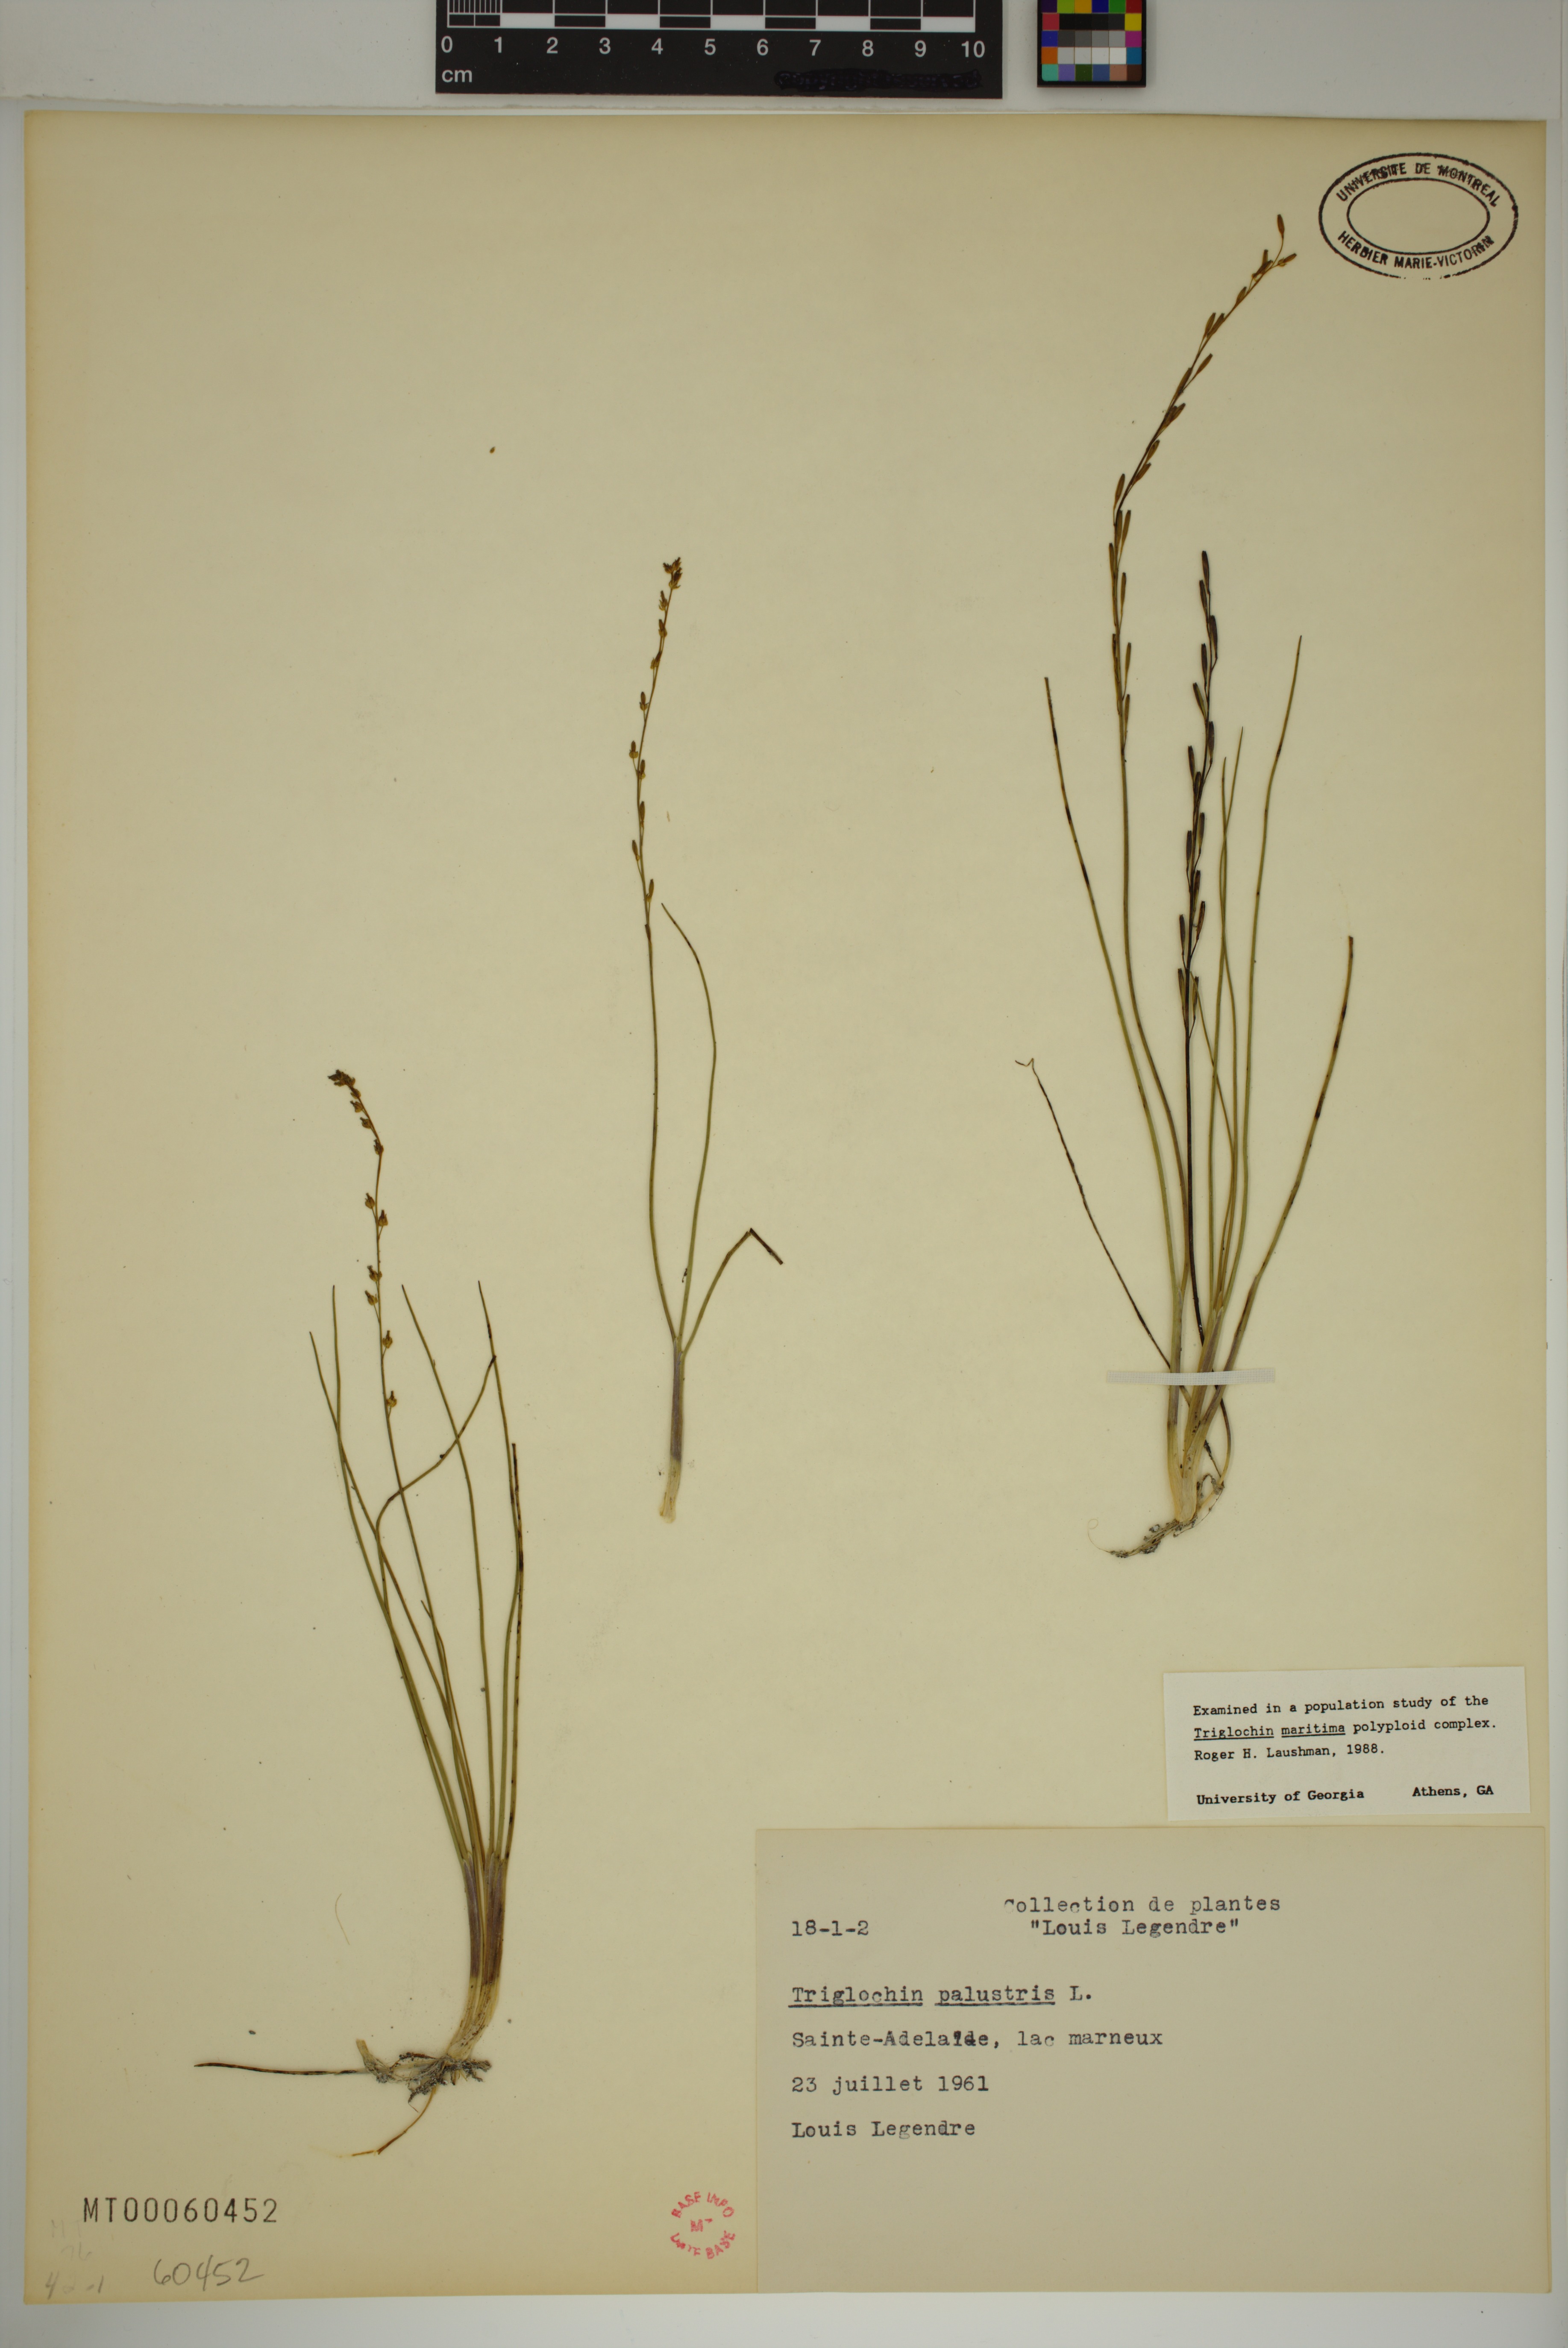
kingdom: Plantae
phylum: Tracheophyta
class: Liliopsida
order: Alismatales
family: Juncaginaceae
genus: Triglochin
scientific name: Triglochin palustris
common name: Marsh arrowgrass
